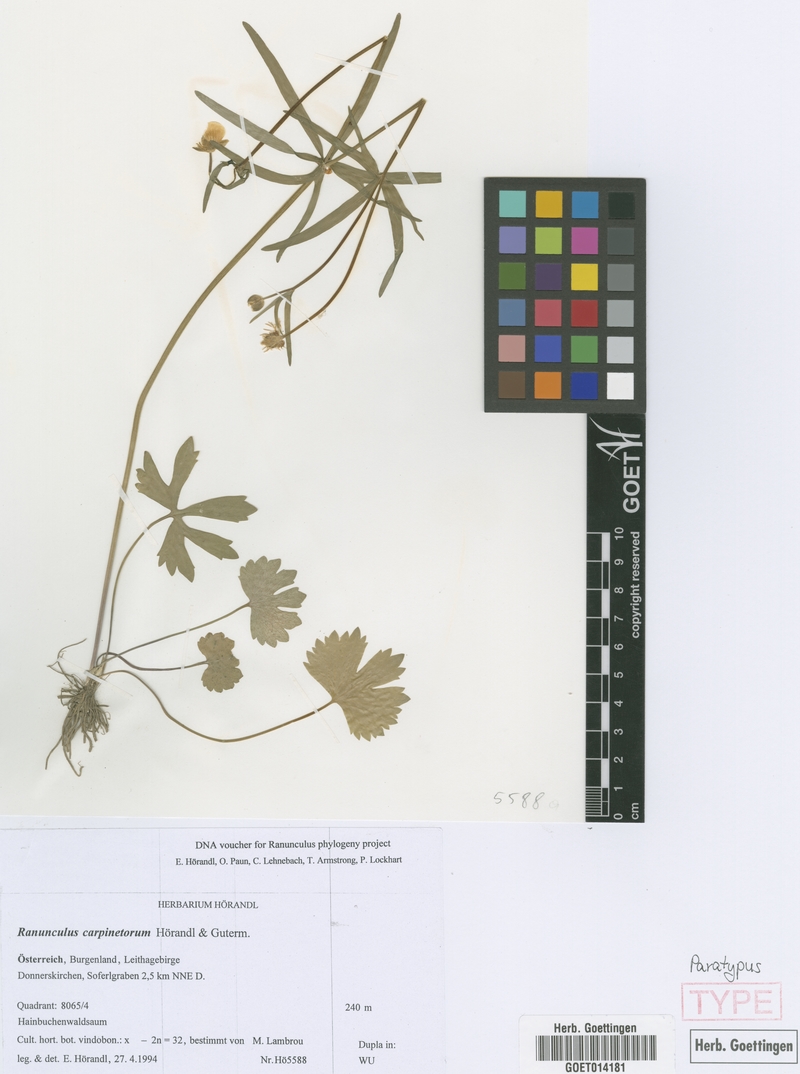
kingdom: Plantae
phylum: Tracheophyta
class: Magnoliopsida
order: Ranunculales
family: Ranunculaceae
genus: Ranunculus
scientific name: Ranunculus carpinetorum
